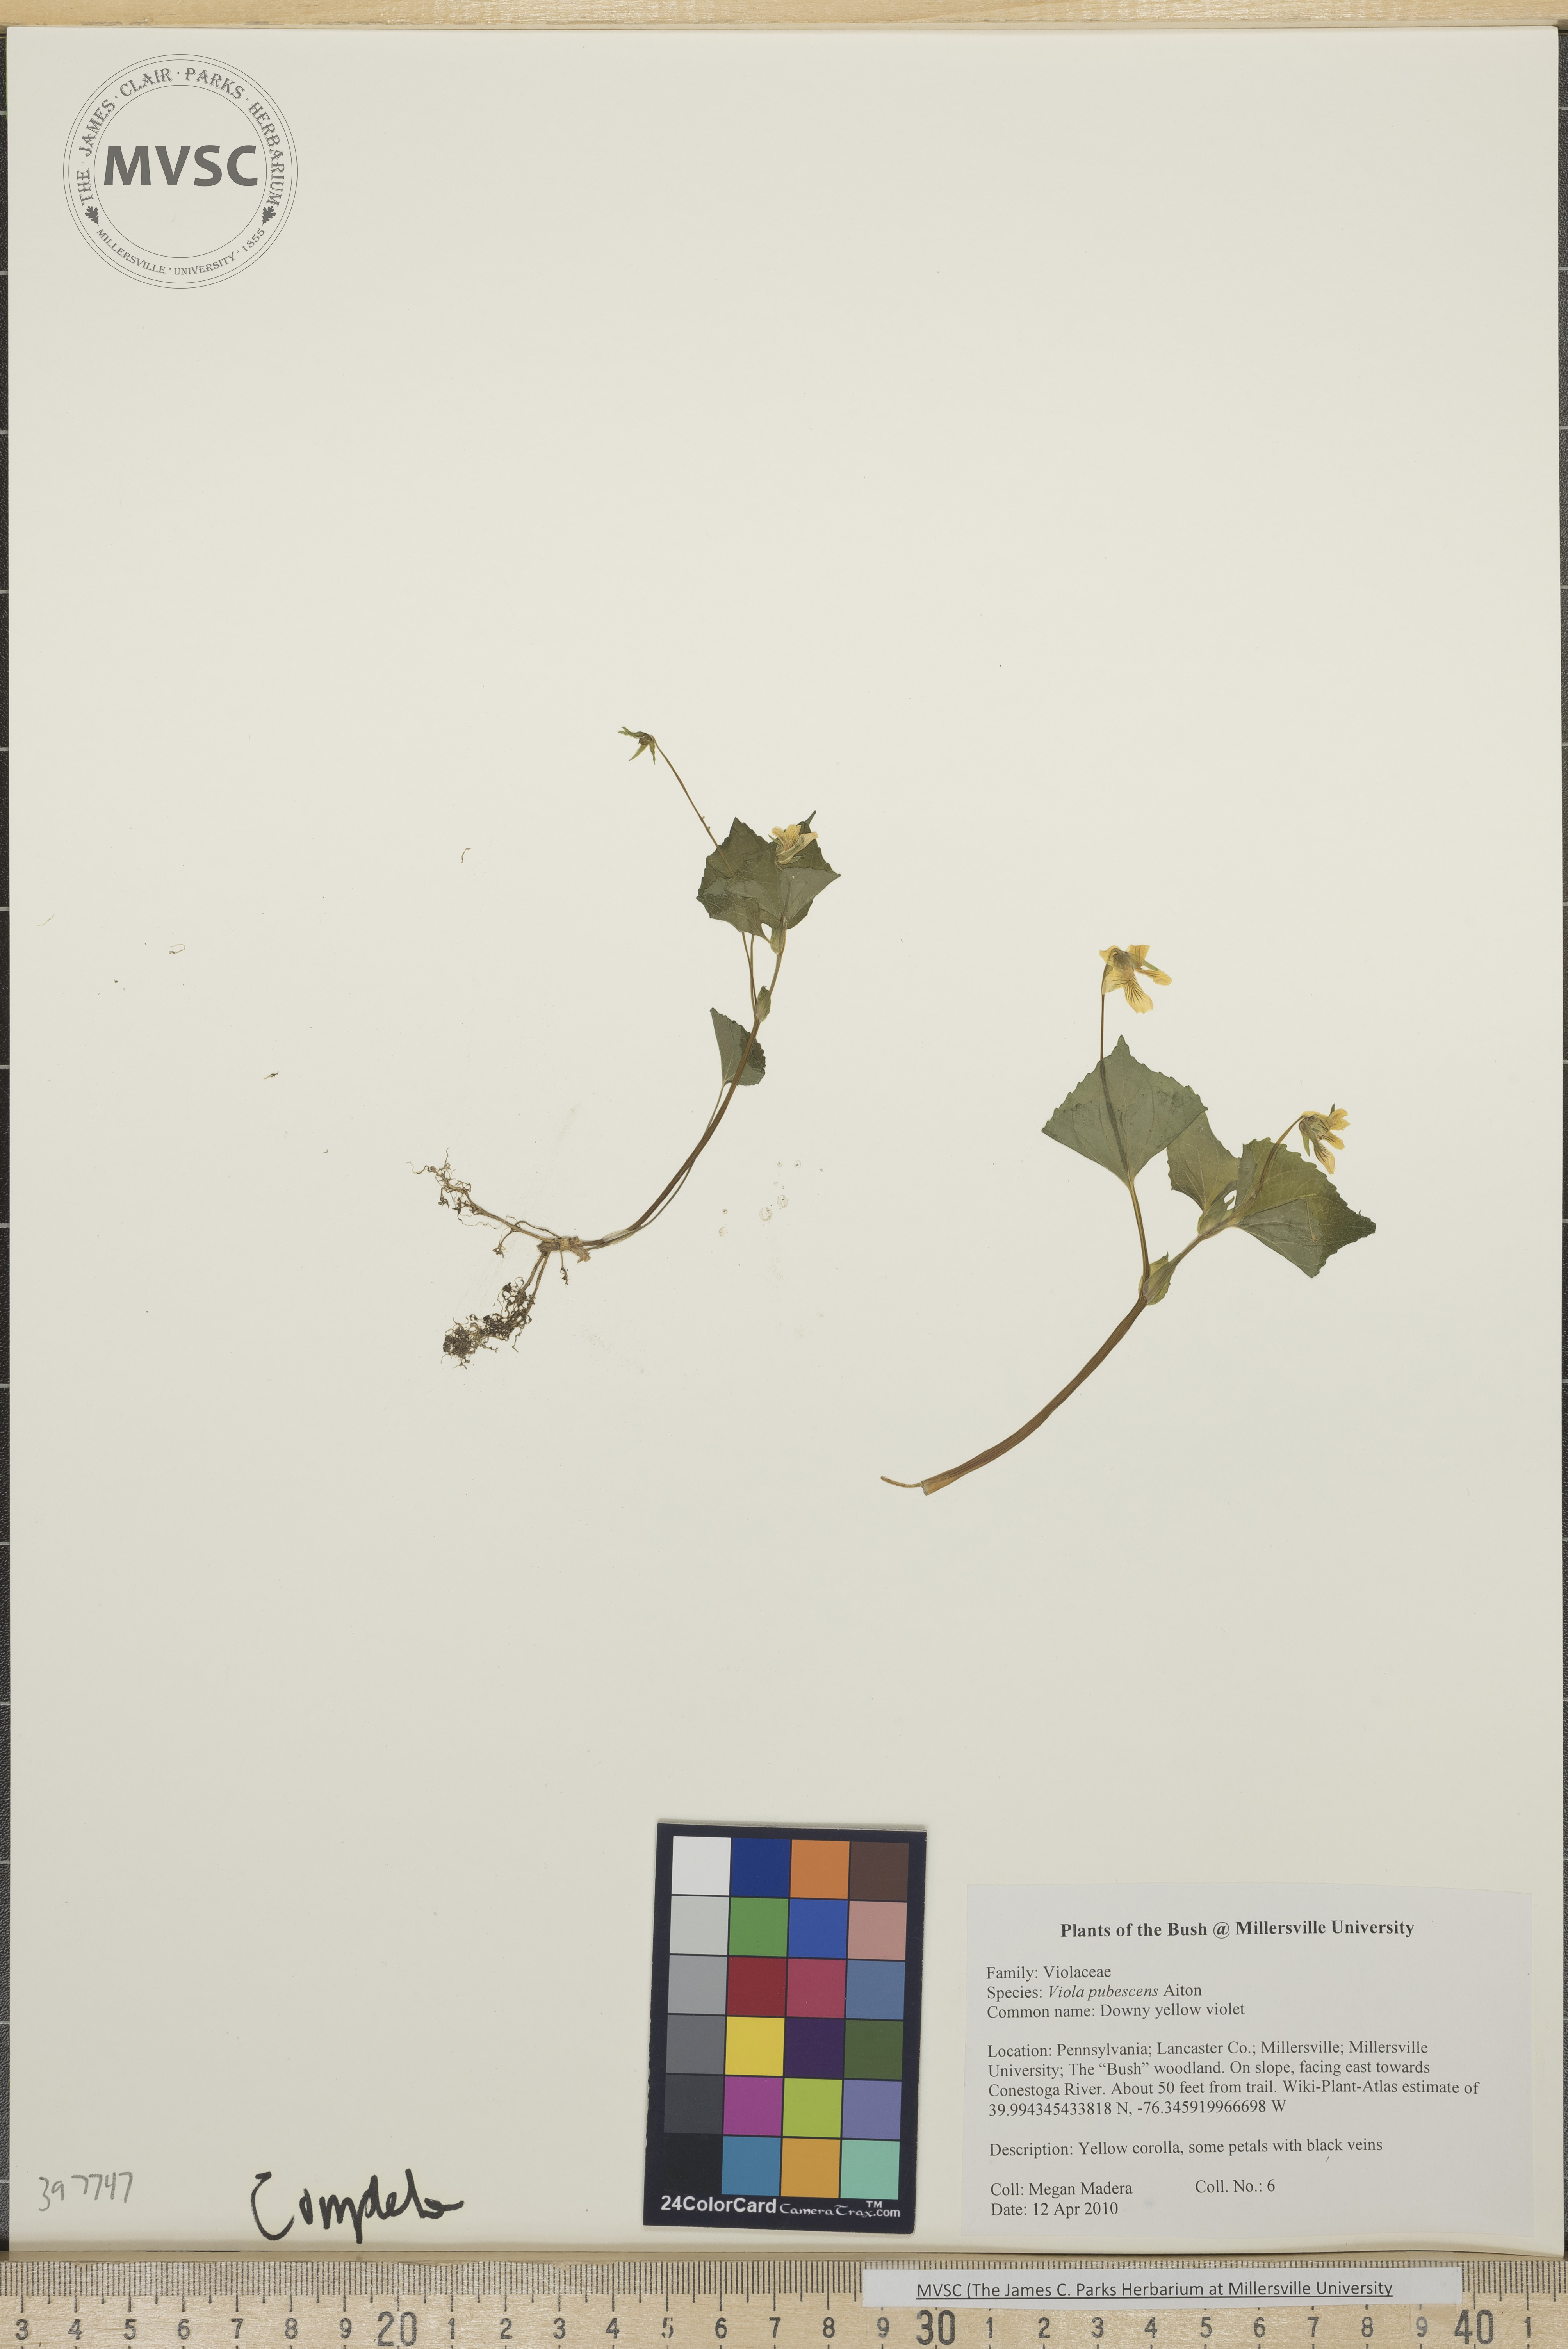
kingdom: Plantae
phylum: Tracheophyta
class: Magnoliopsida
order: Malpighiales
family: Violaceae
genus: Viola
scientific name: Viola pubescens
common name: downy yellow violet
